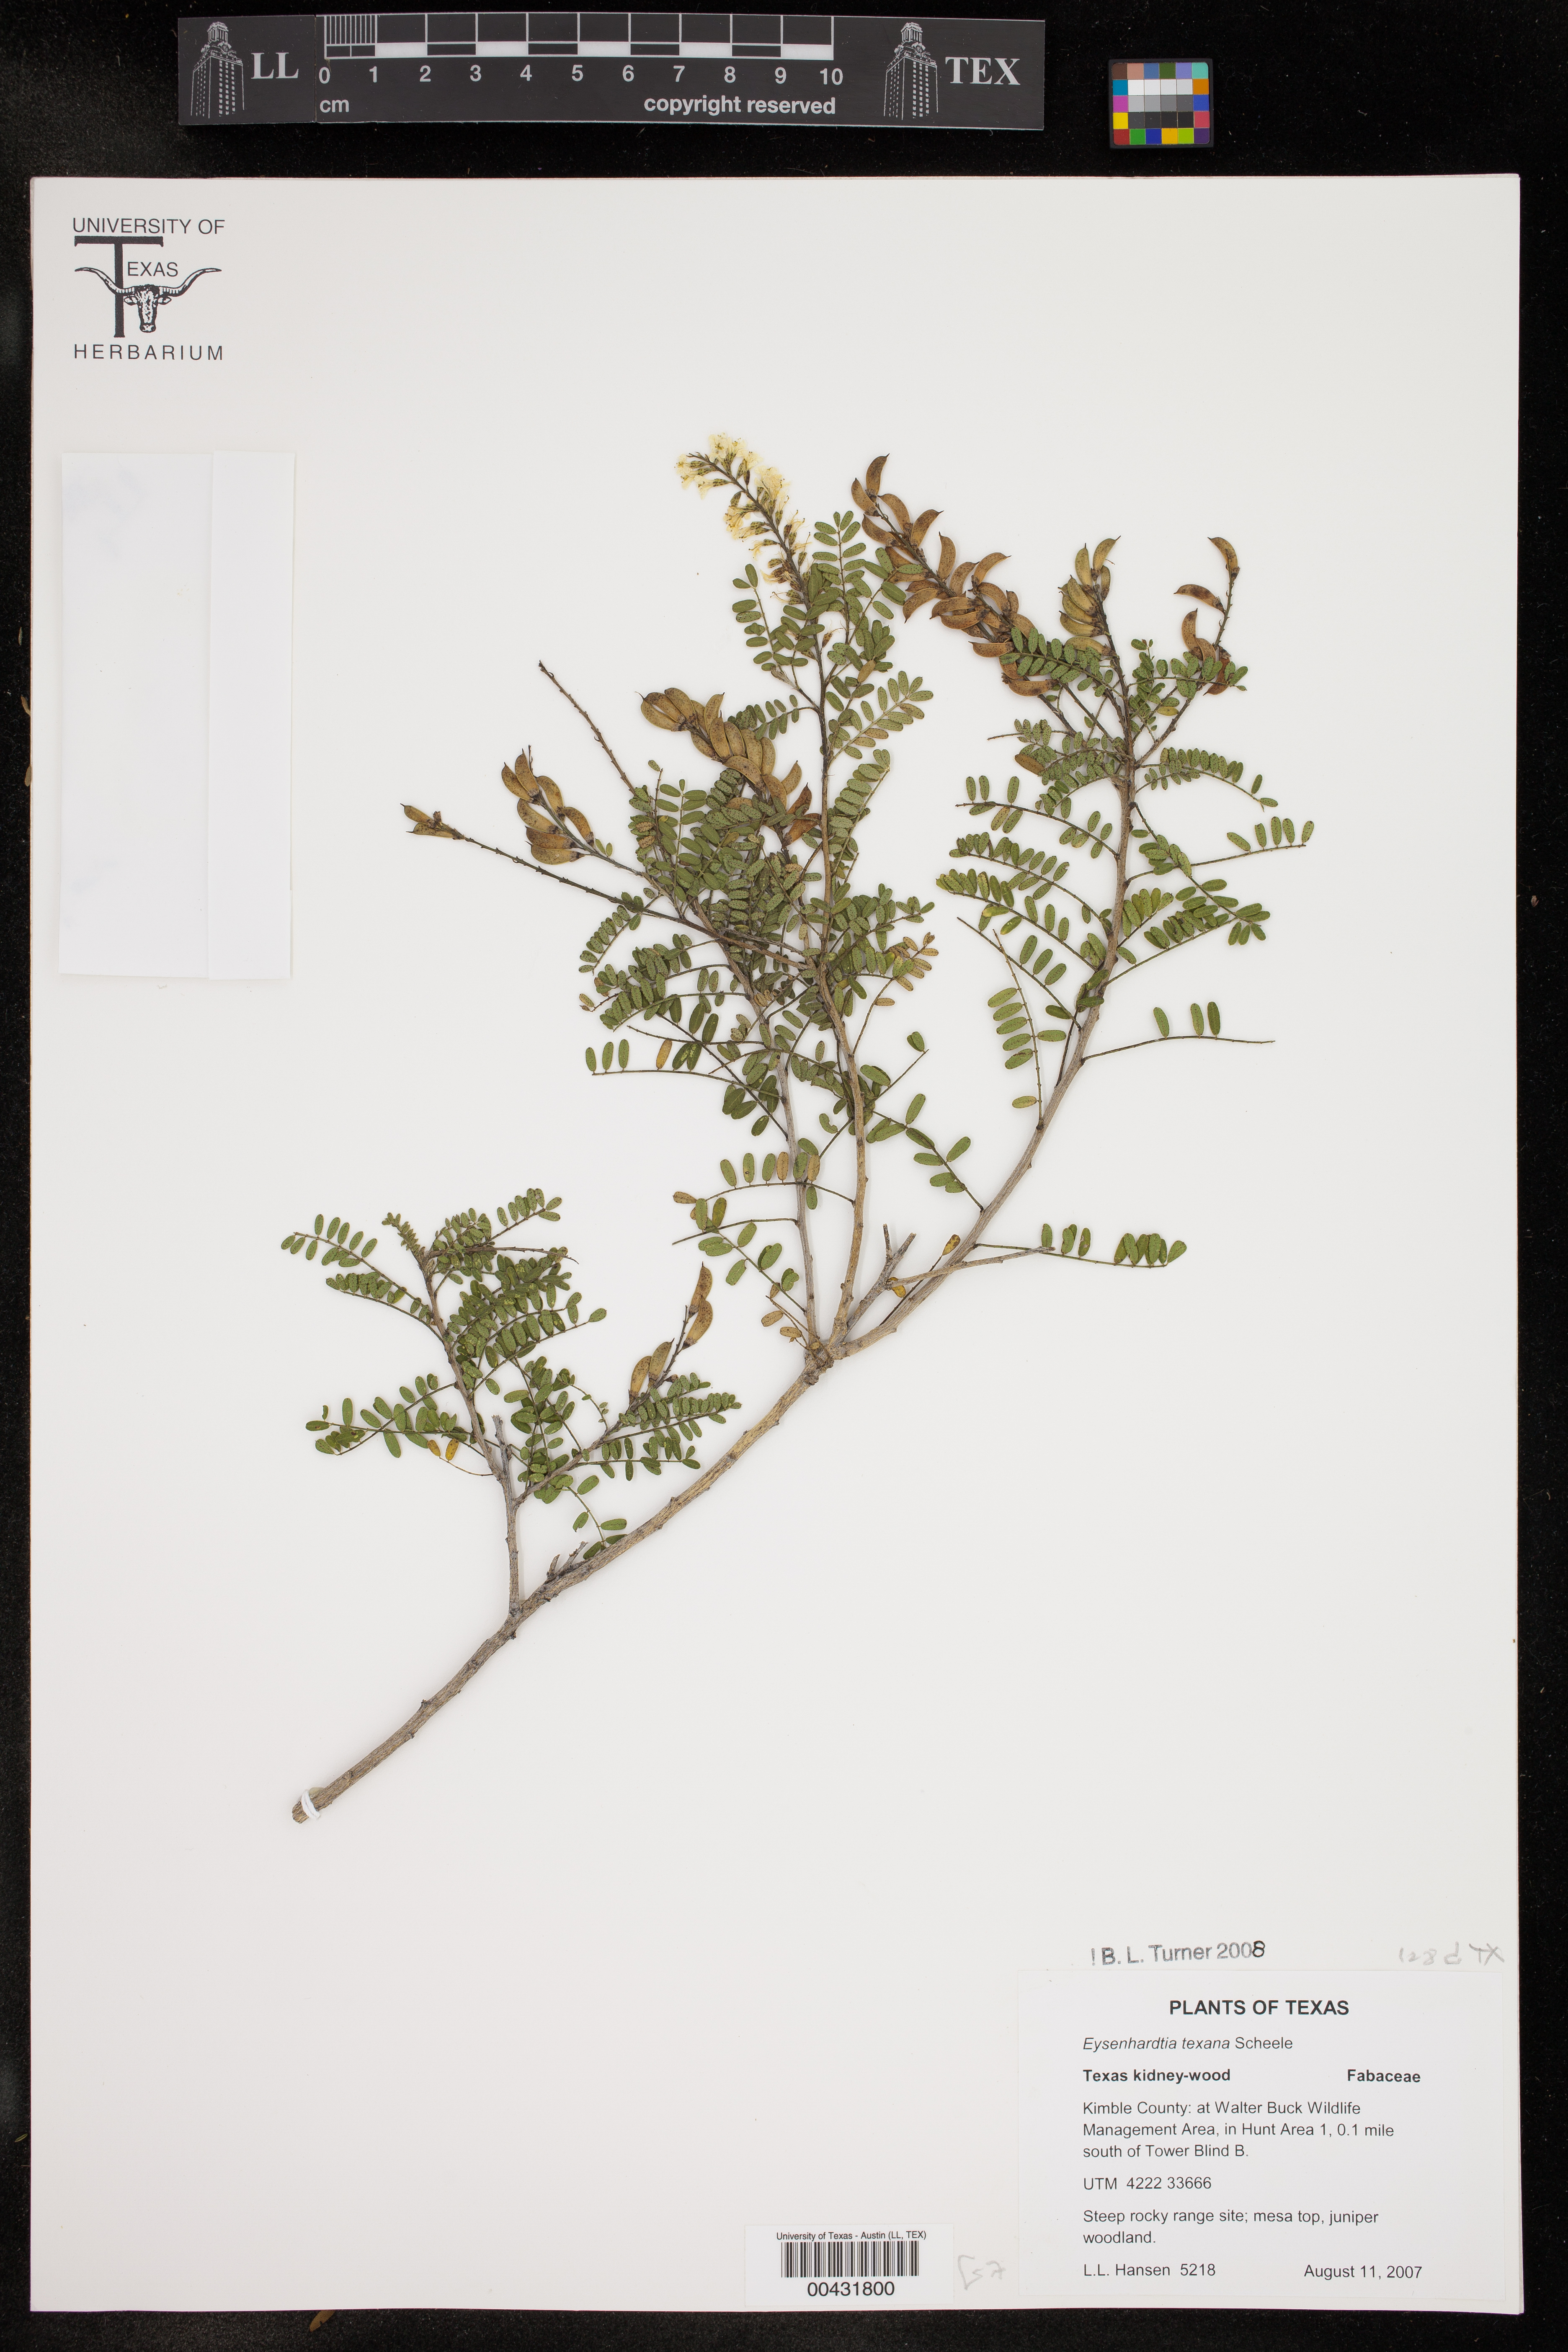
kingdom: Plantae
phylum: Tracheophyta
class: Magnoliopsida
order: Fabales
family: Fabaceae
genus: Eysenhardtia
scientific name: Eysenhardtia texana
